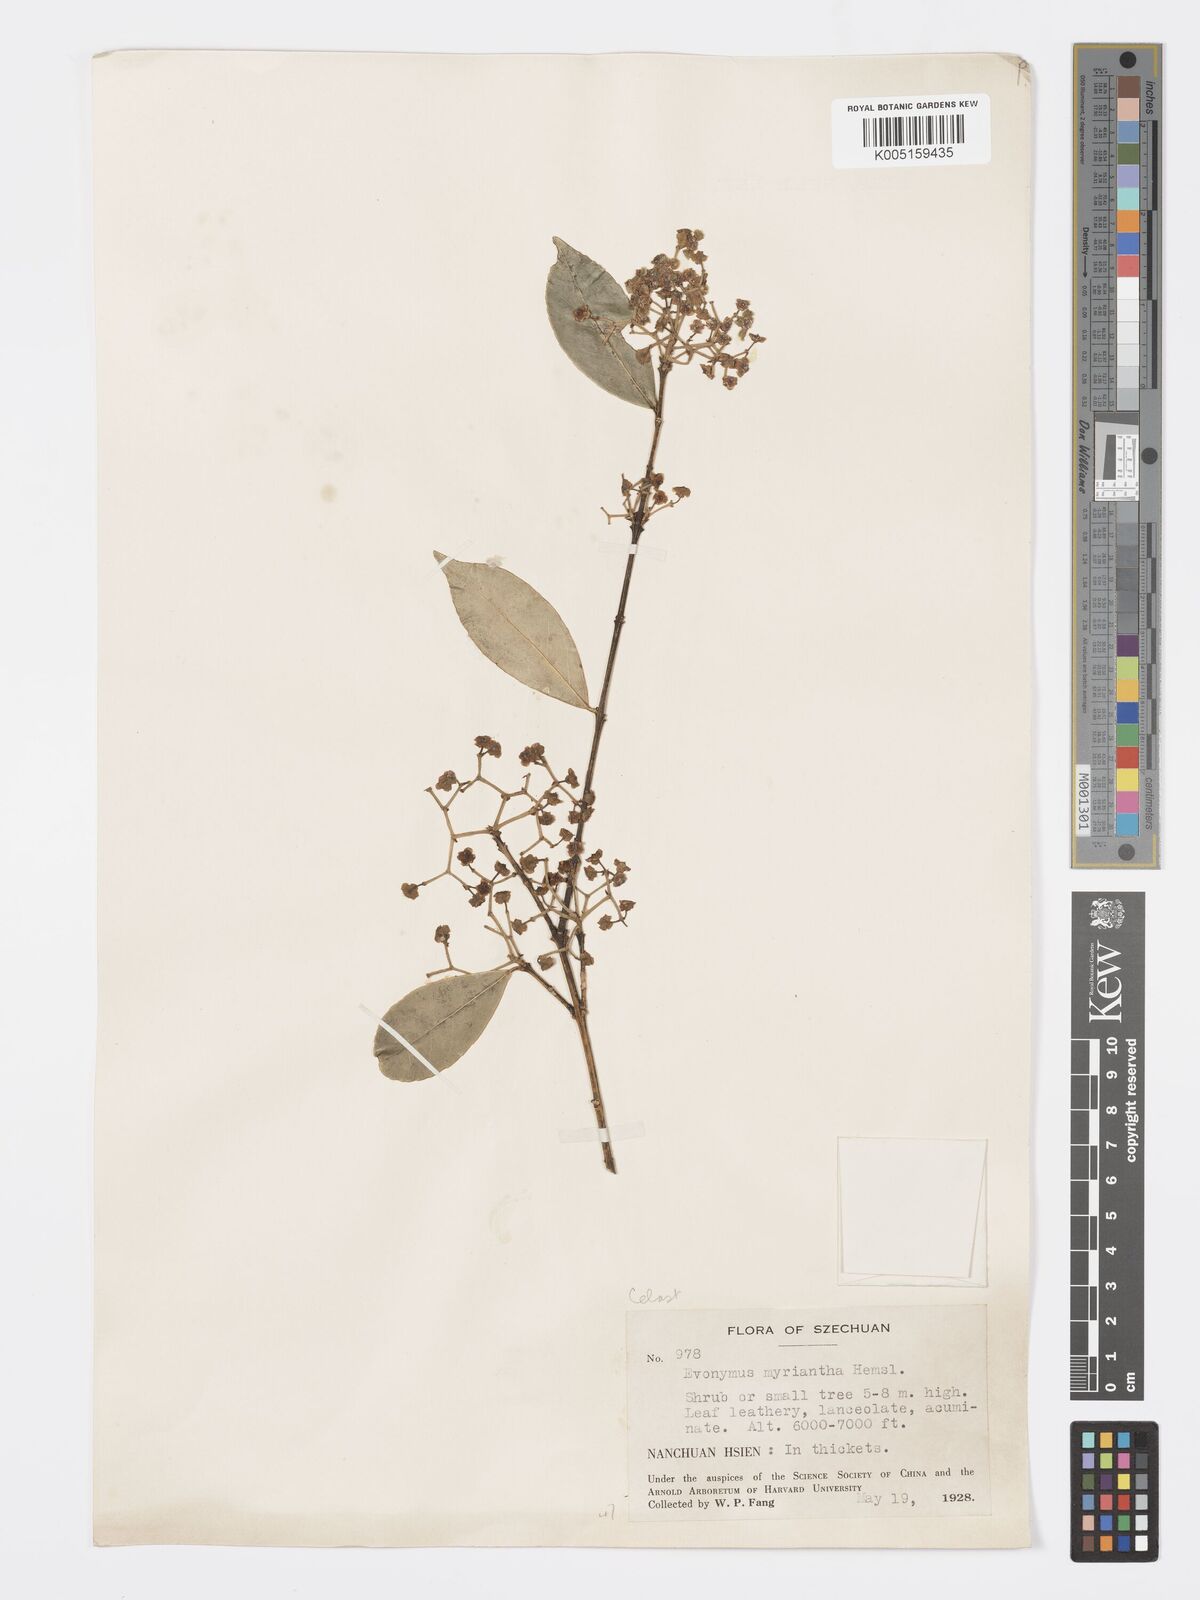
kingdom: Plantae
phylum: Tracheophyta
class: Magnoliopsida
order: Celastrales
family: Celastraceae
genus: Euonymus
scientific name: Euonymus myrianthus
